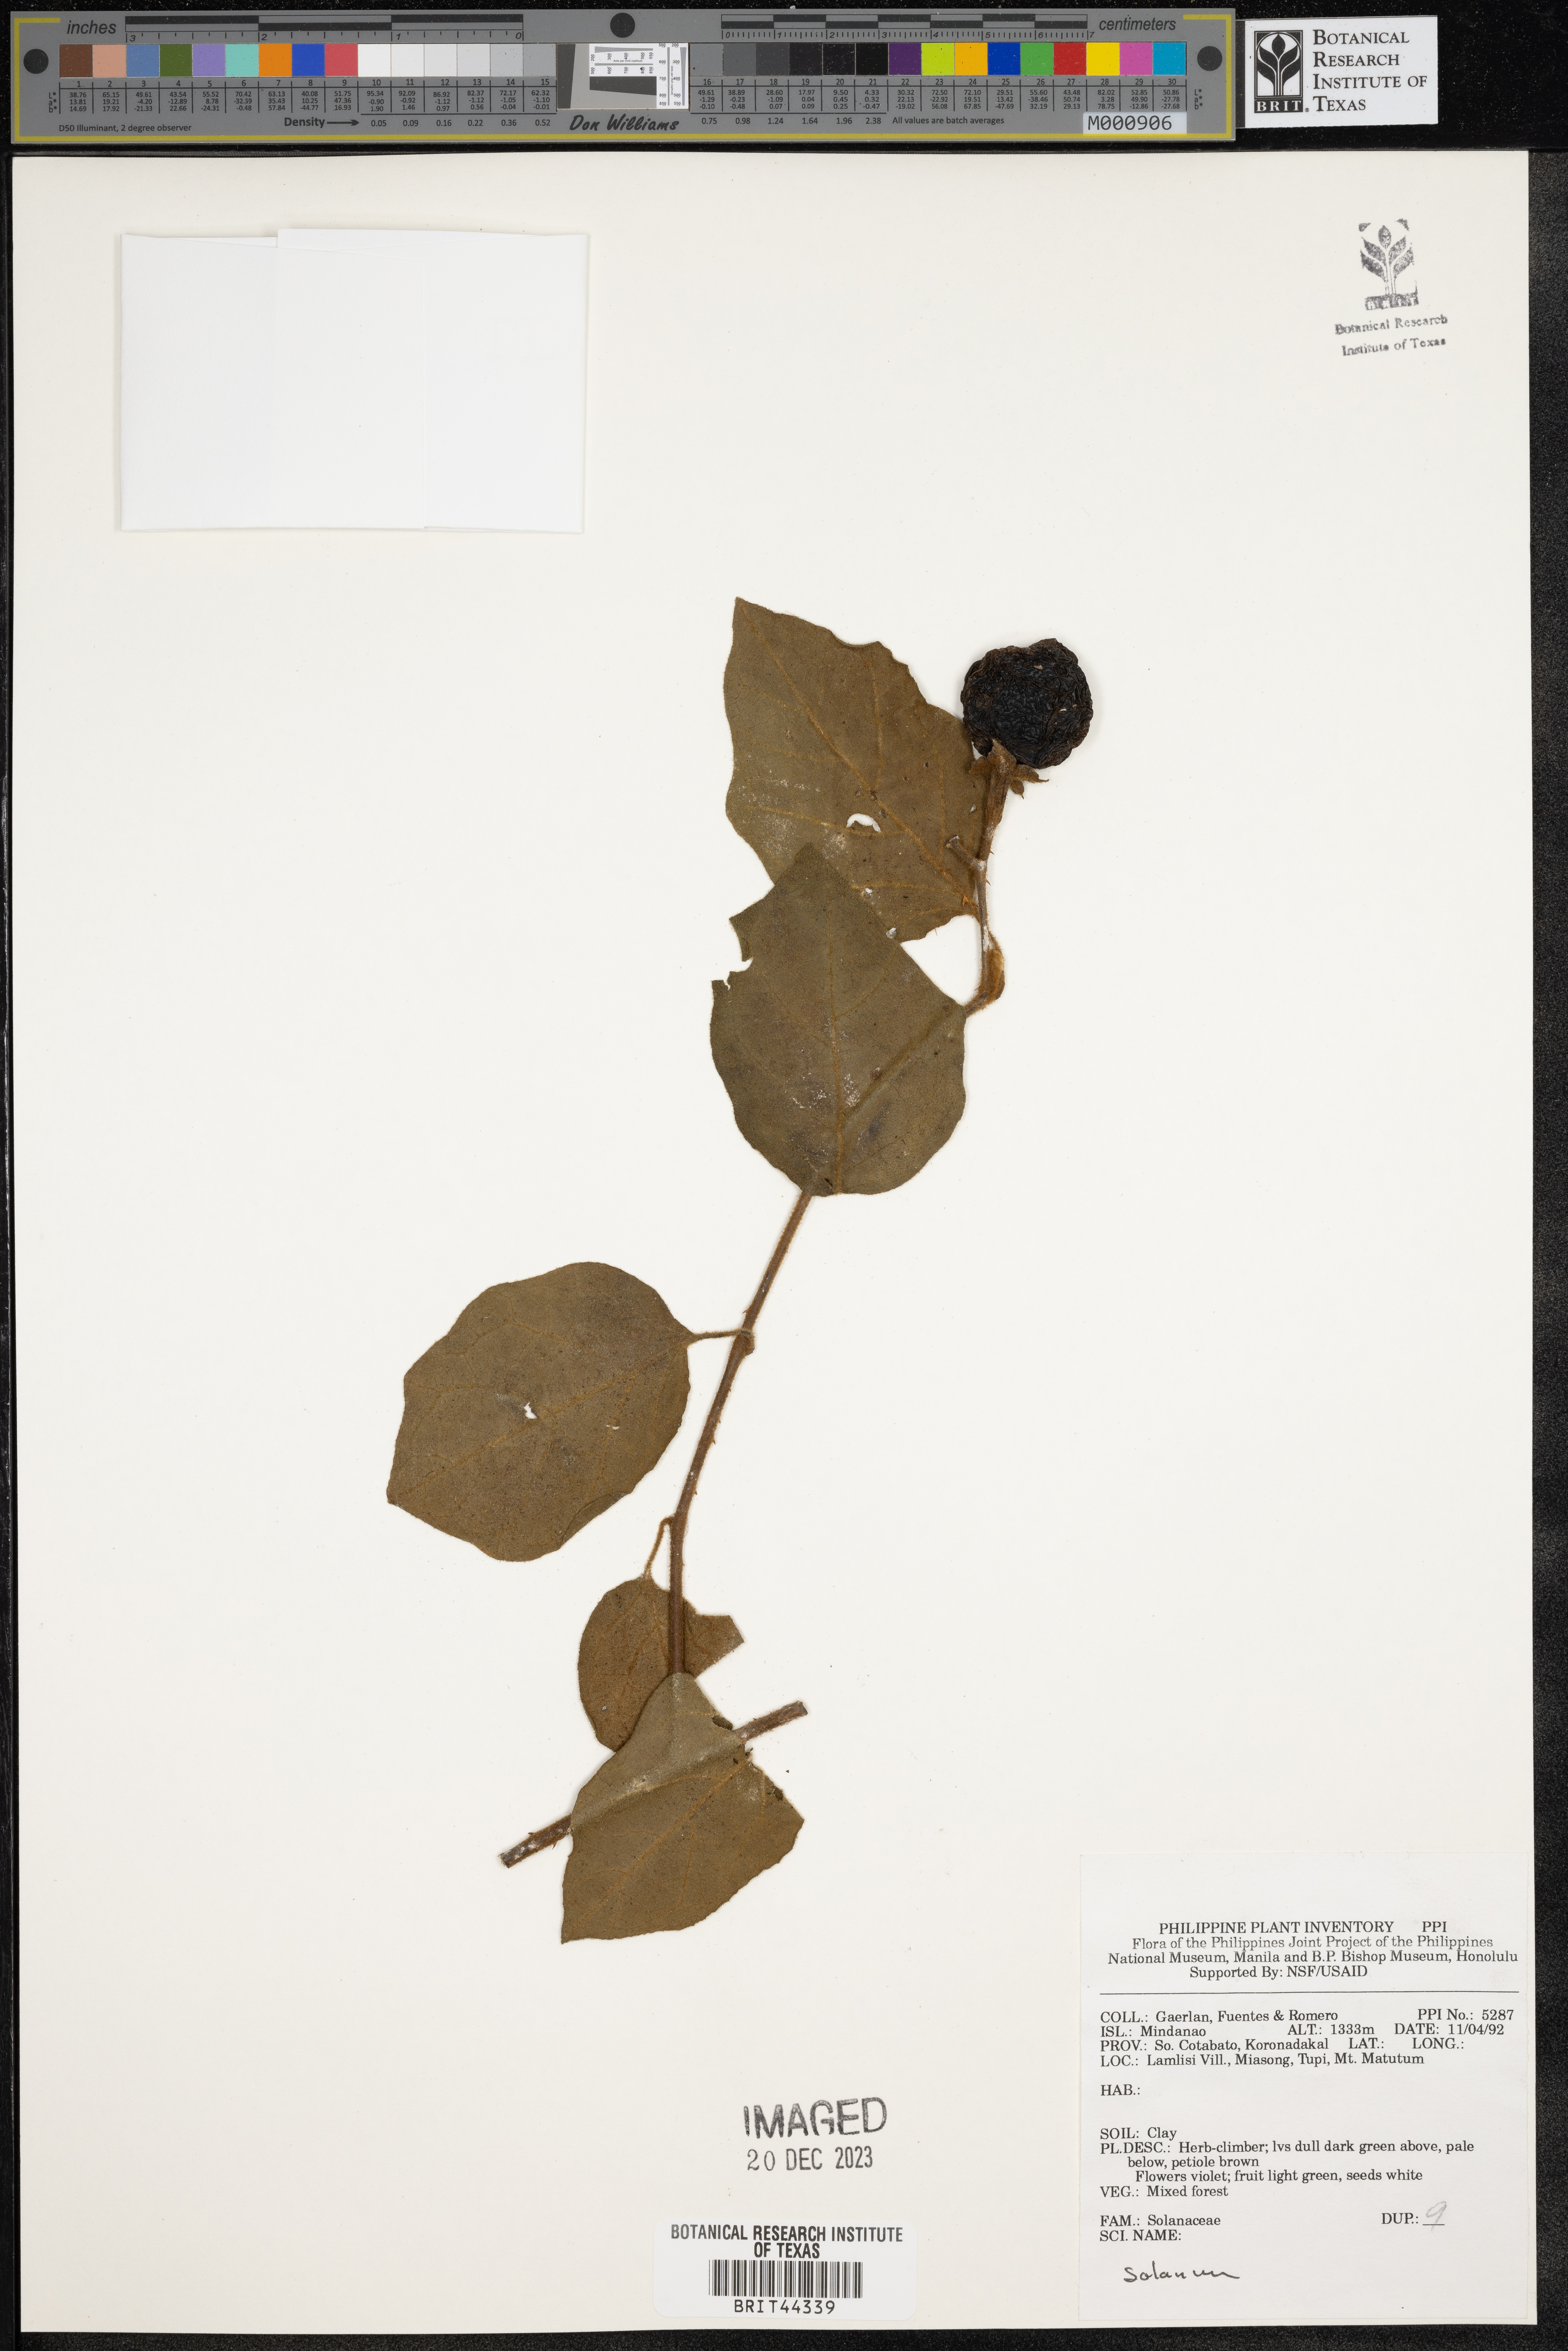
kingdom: Plantae
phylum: Tracheophyta
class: Magnoliopsida
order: Solanales
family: Solanaceae
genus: Solanum
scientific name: Solanum
